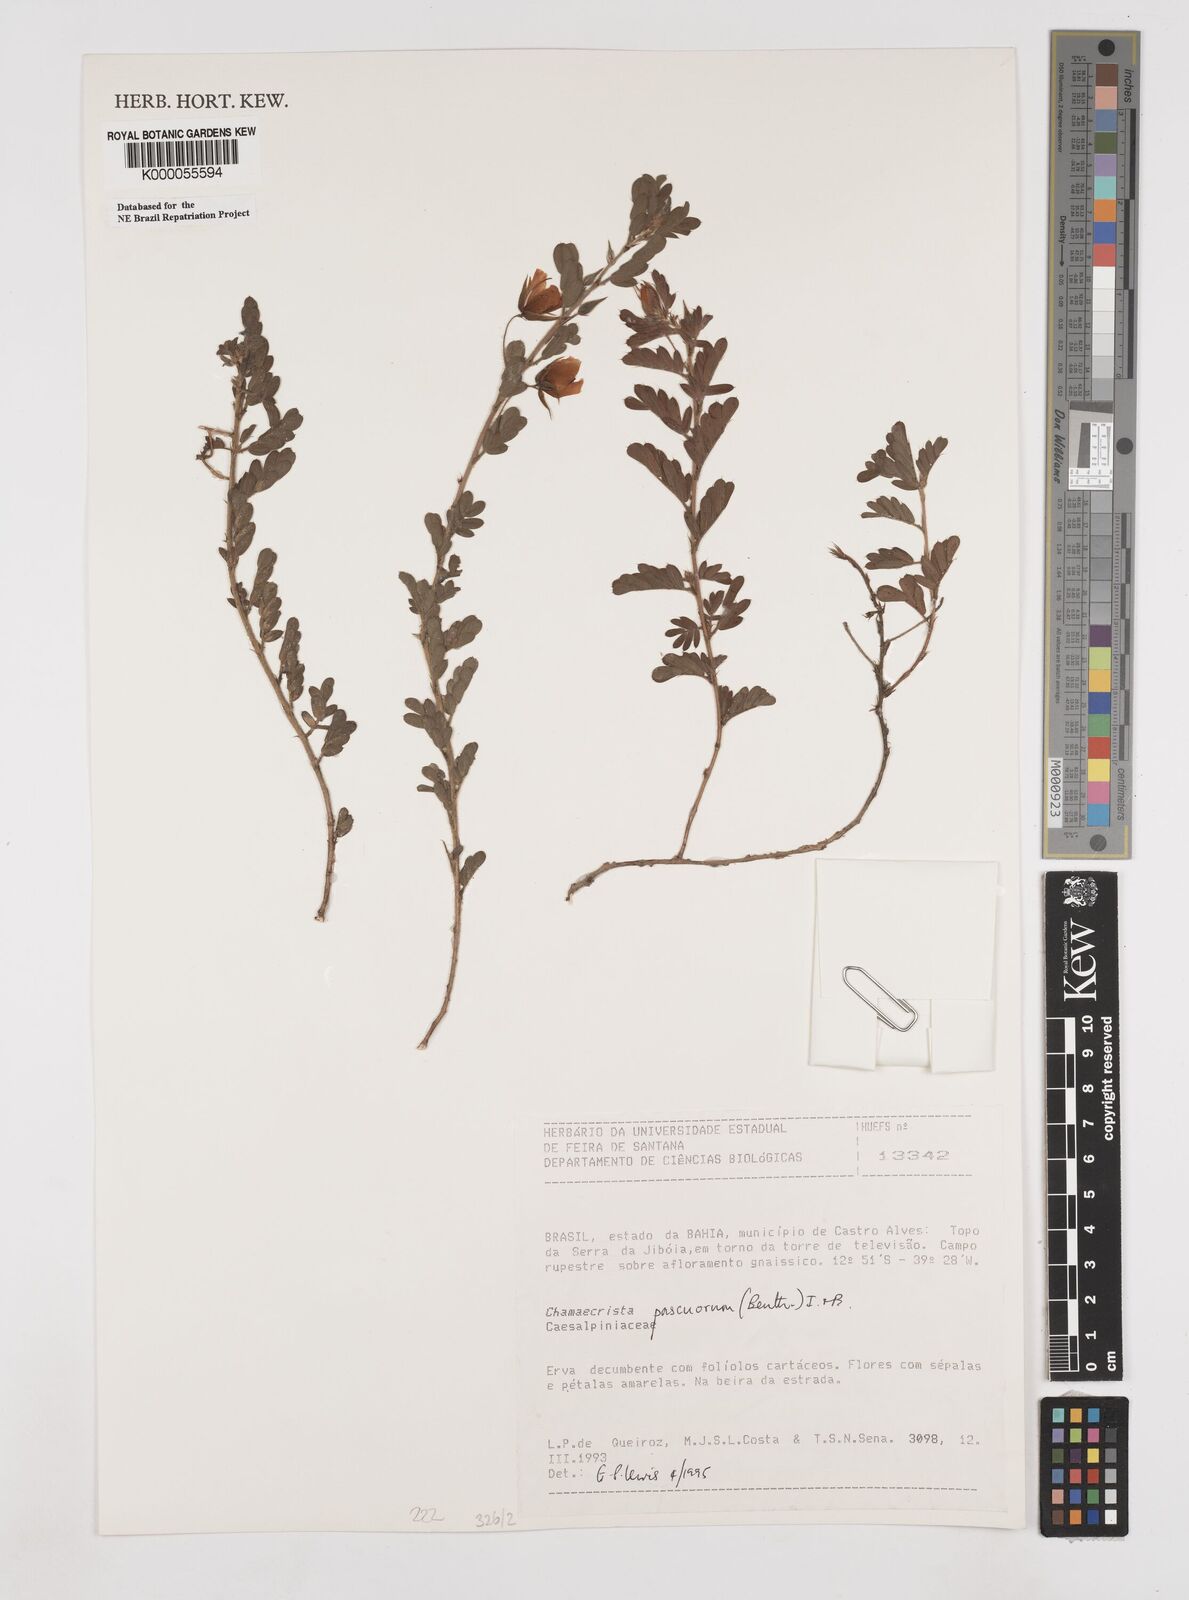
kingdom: Plantae
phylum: Tracheophyta
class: Magnoliopsida
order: Fabales
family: Fabaceae
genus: Chamaecrista
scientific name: Chamaecrista pascuorum
